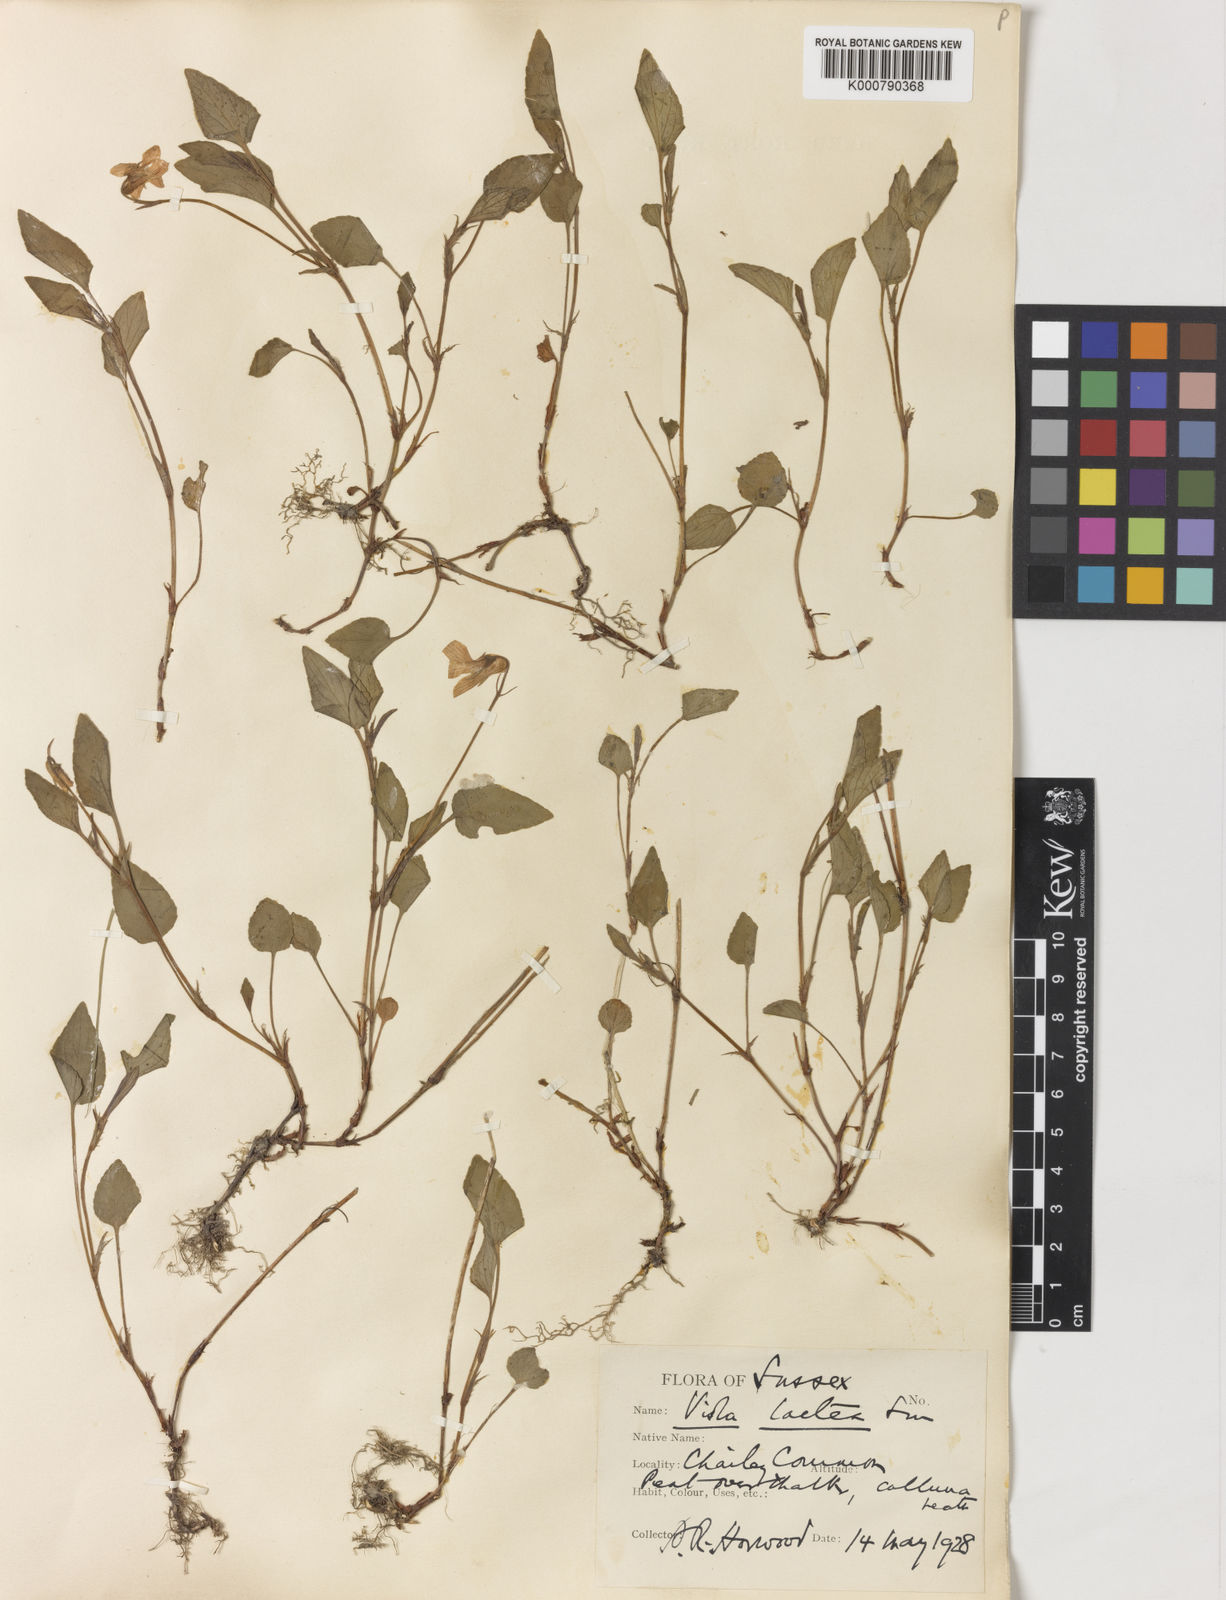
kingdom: Plantae
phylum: Tracheophyta
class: Magnoliopsida
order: Malpighiales
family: Violaceae
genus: Viola
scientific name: Viola lactea
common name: Pale dog-violet
